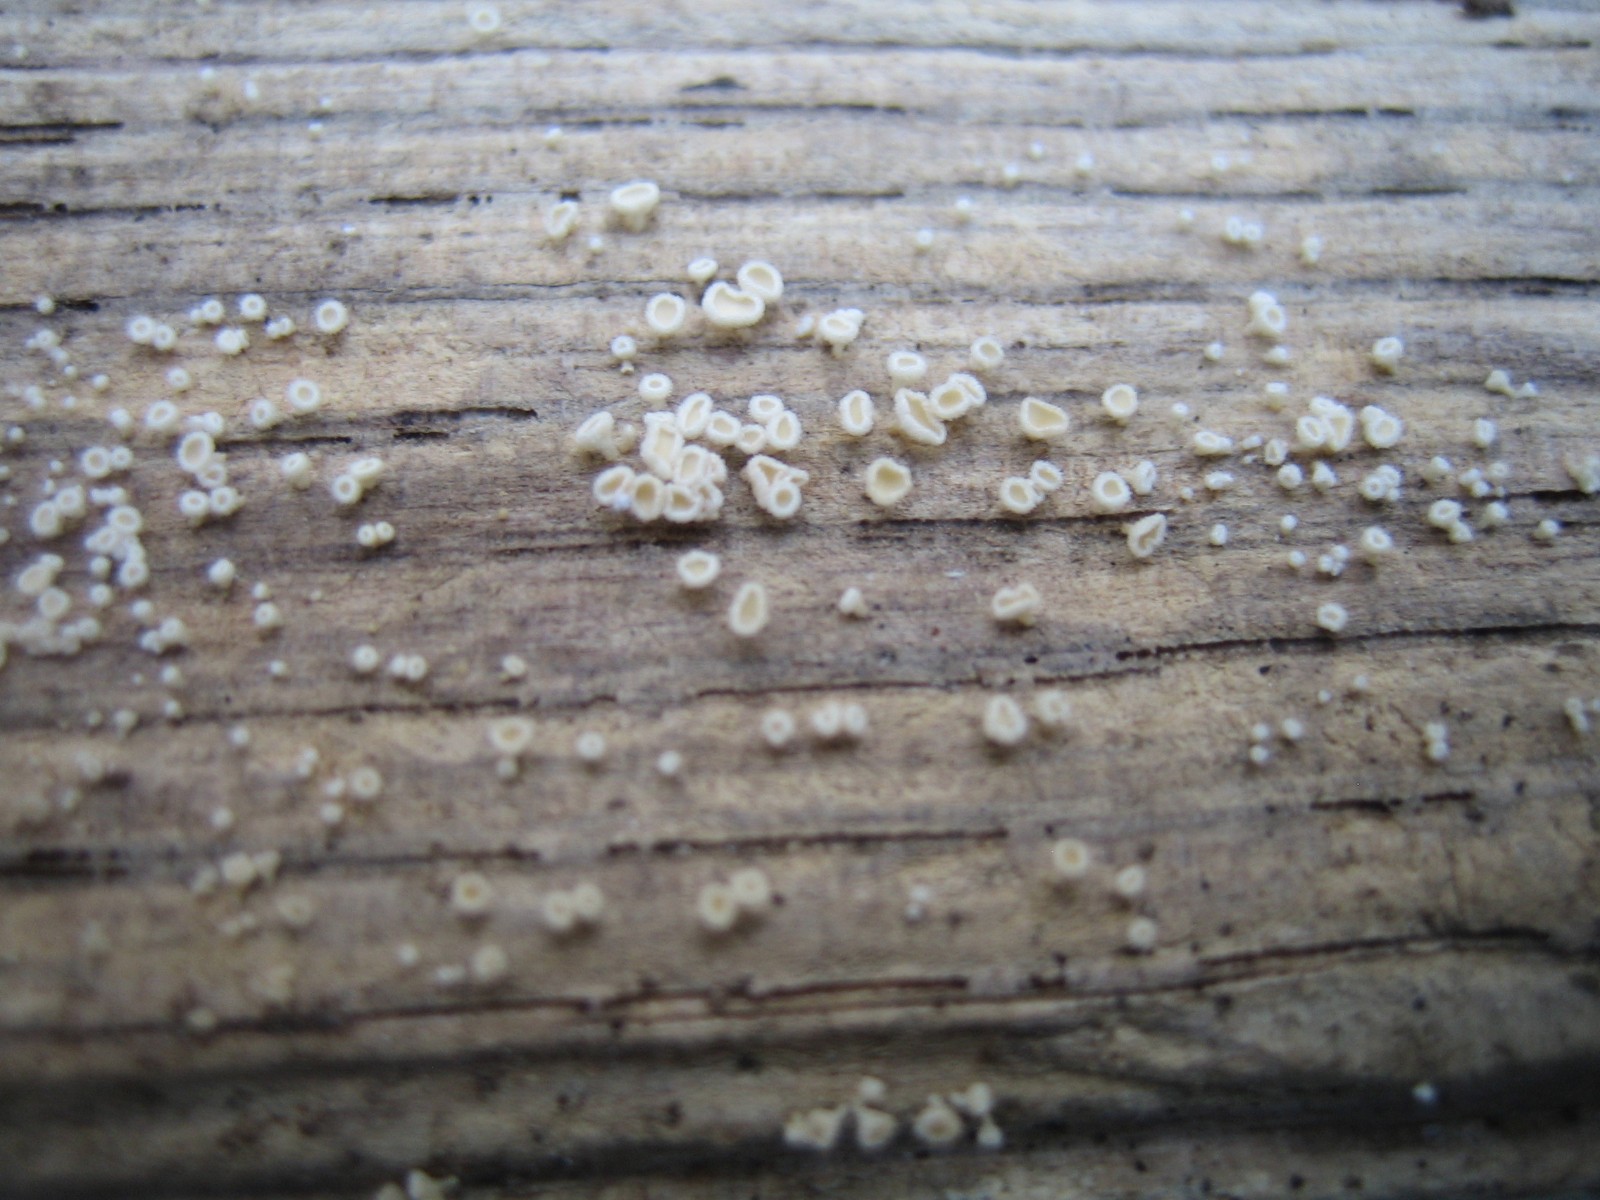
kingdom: Fungi
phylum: Ascomycota
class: Leotiomycetes
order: Helotiales
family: Lachnaceae
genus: Lachnum
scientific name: Lachnum
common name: frynseskive
